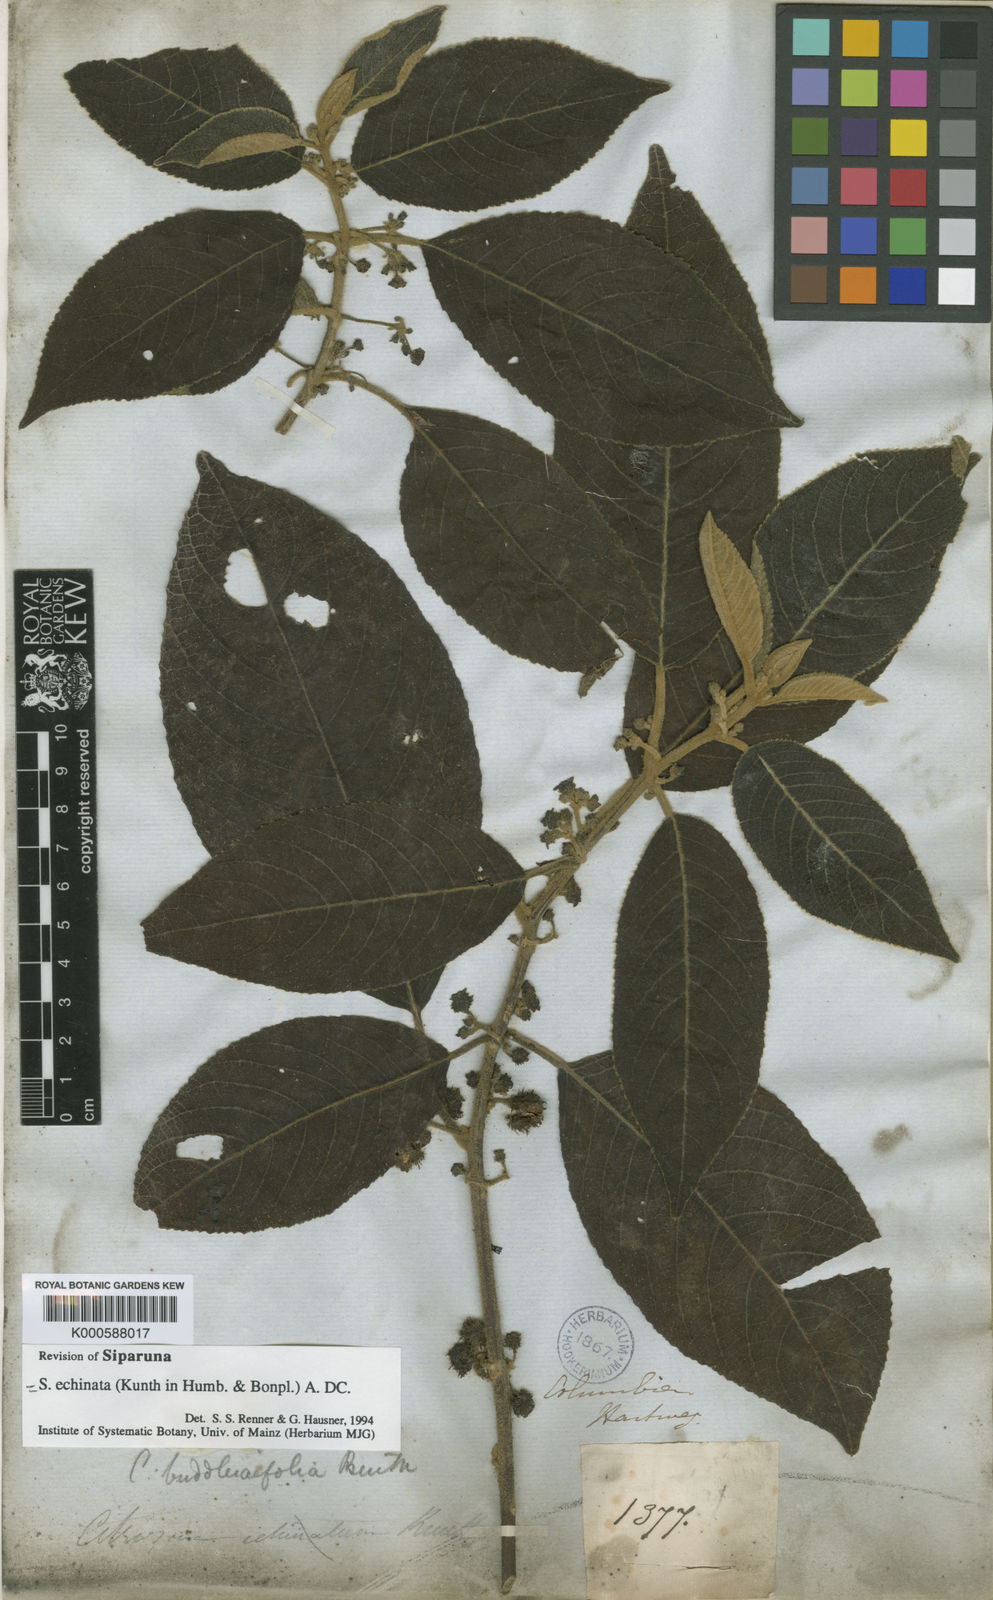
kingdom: Plantae
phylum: Tracheophyta
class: Magnoliopsida
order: Laurales
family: Siparunaceae
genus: Siparuna
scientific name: Siparuna
